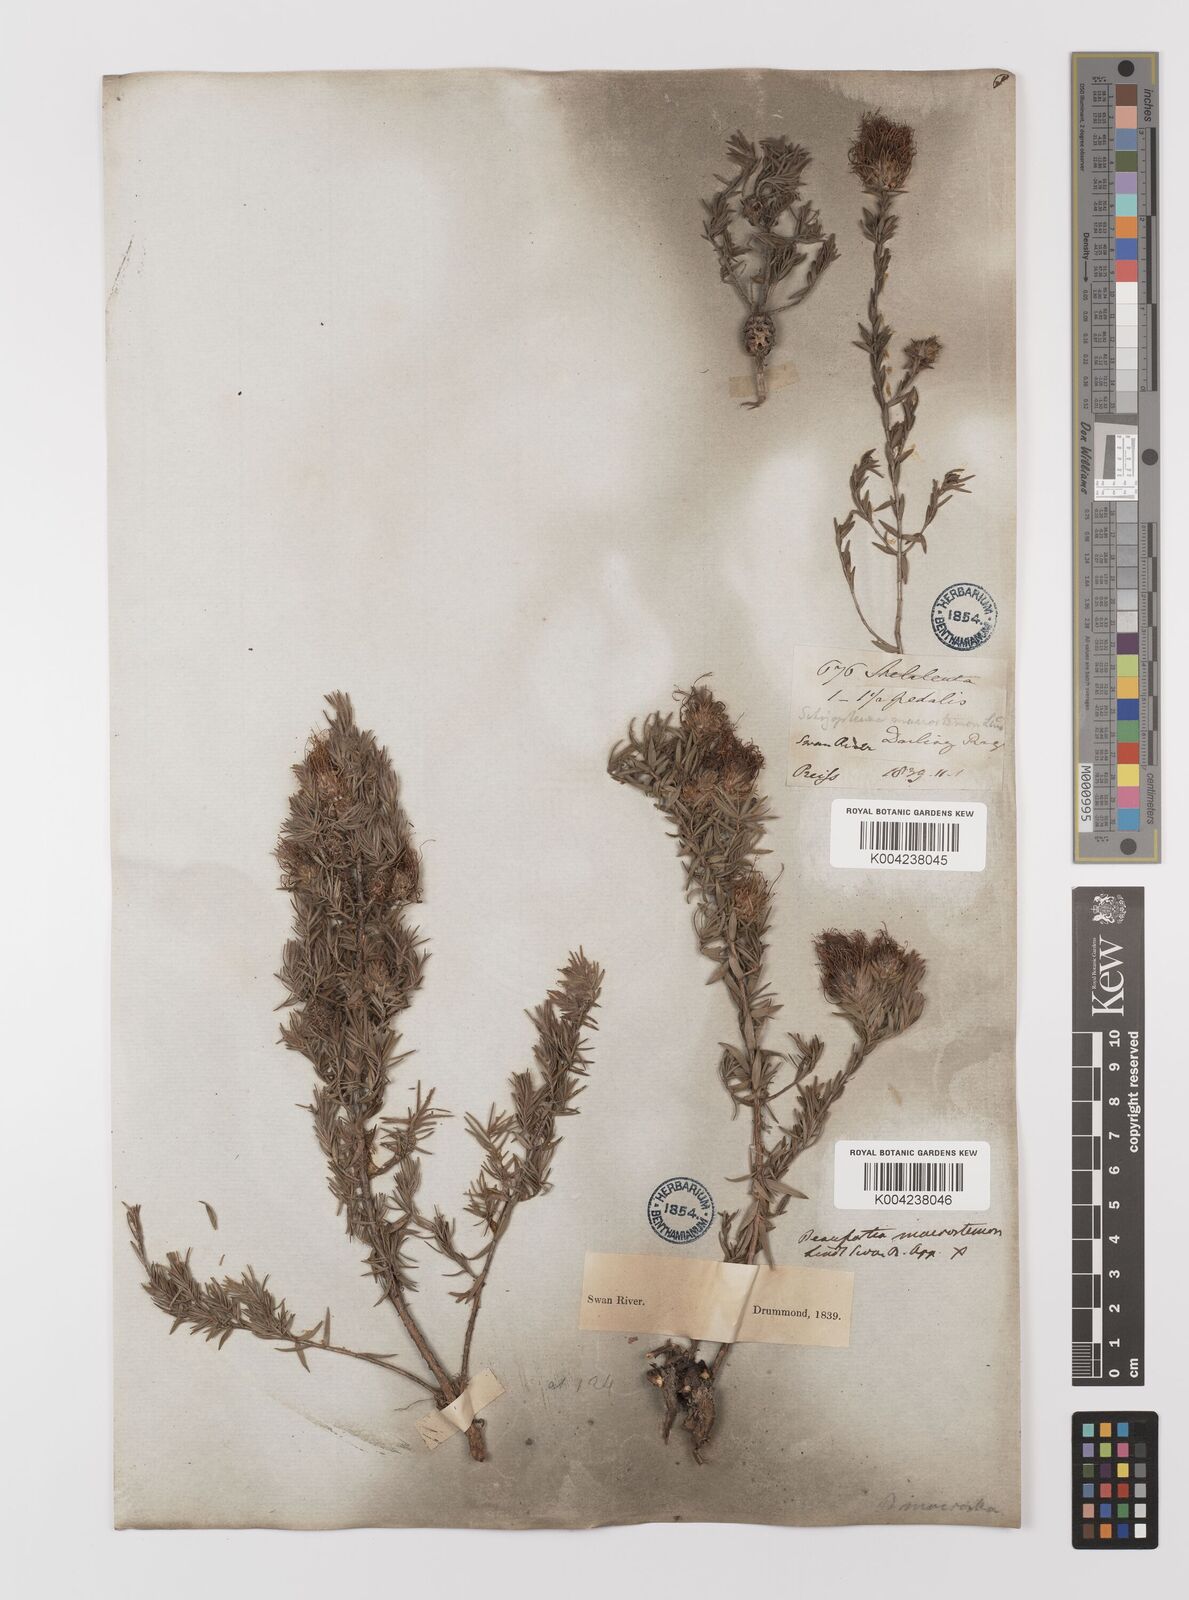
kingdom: Plantae
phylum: Tracheophyta
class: Magnoliopsida
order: Myrtales
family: Myrtaceae
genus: Melaleuca
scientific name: Melaleuca macrostemon
